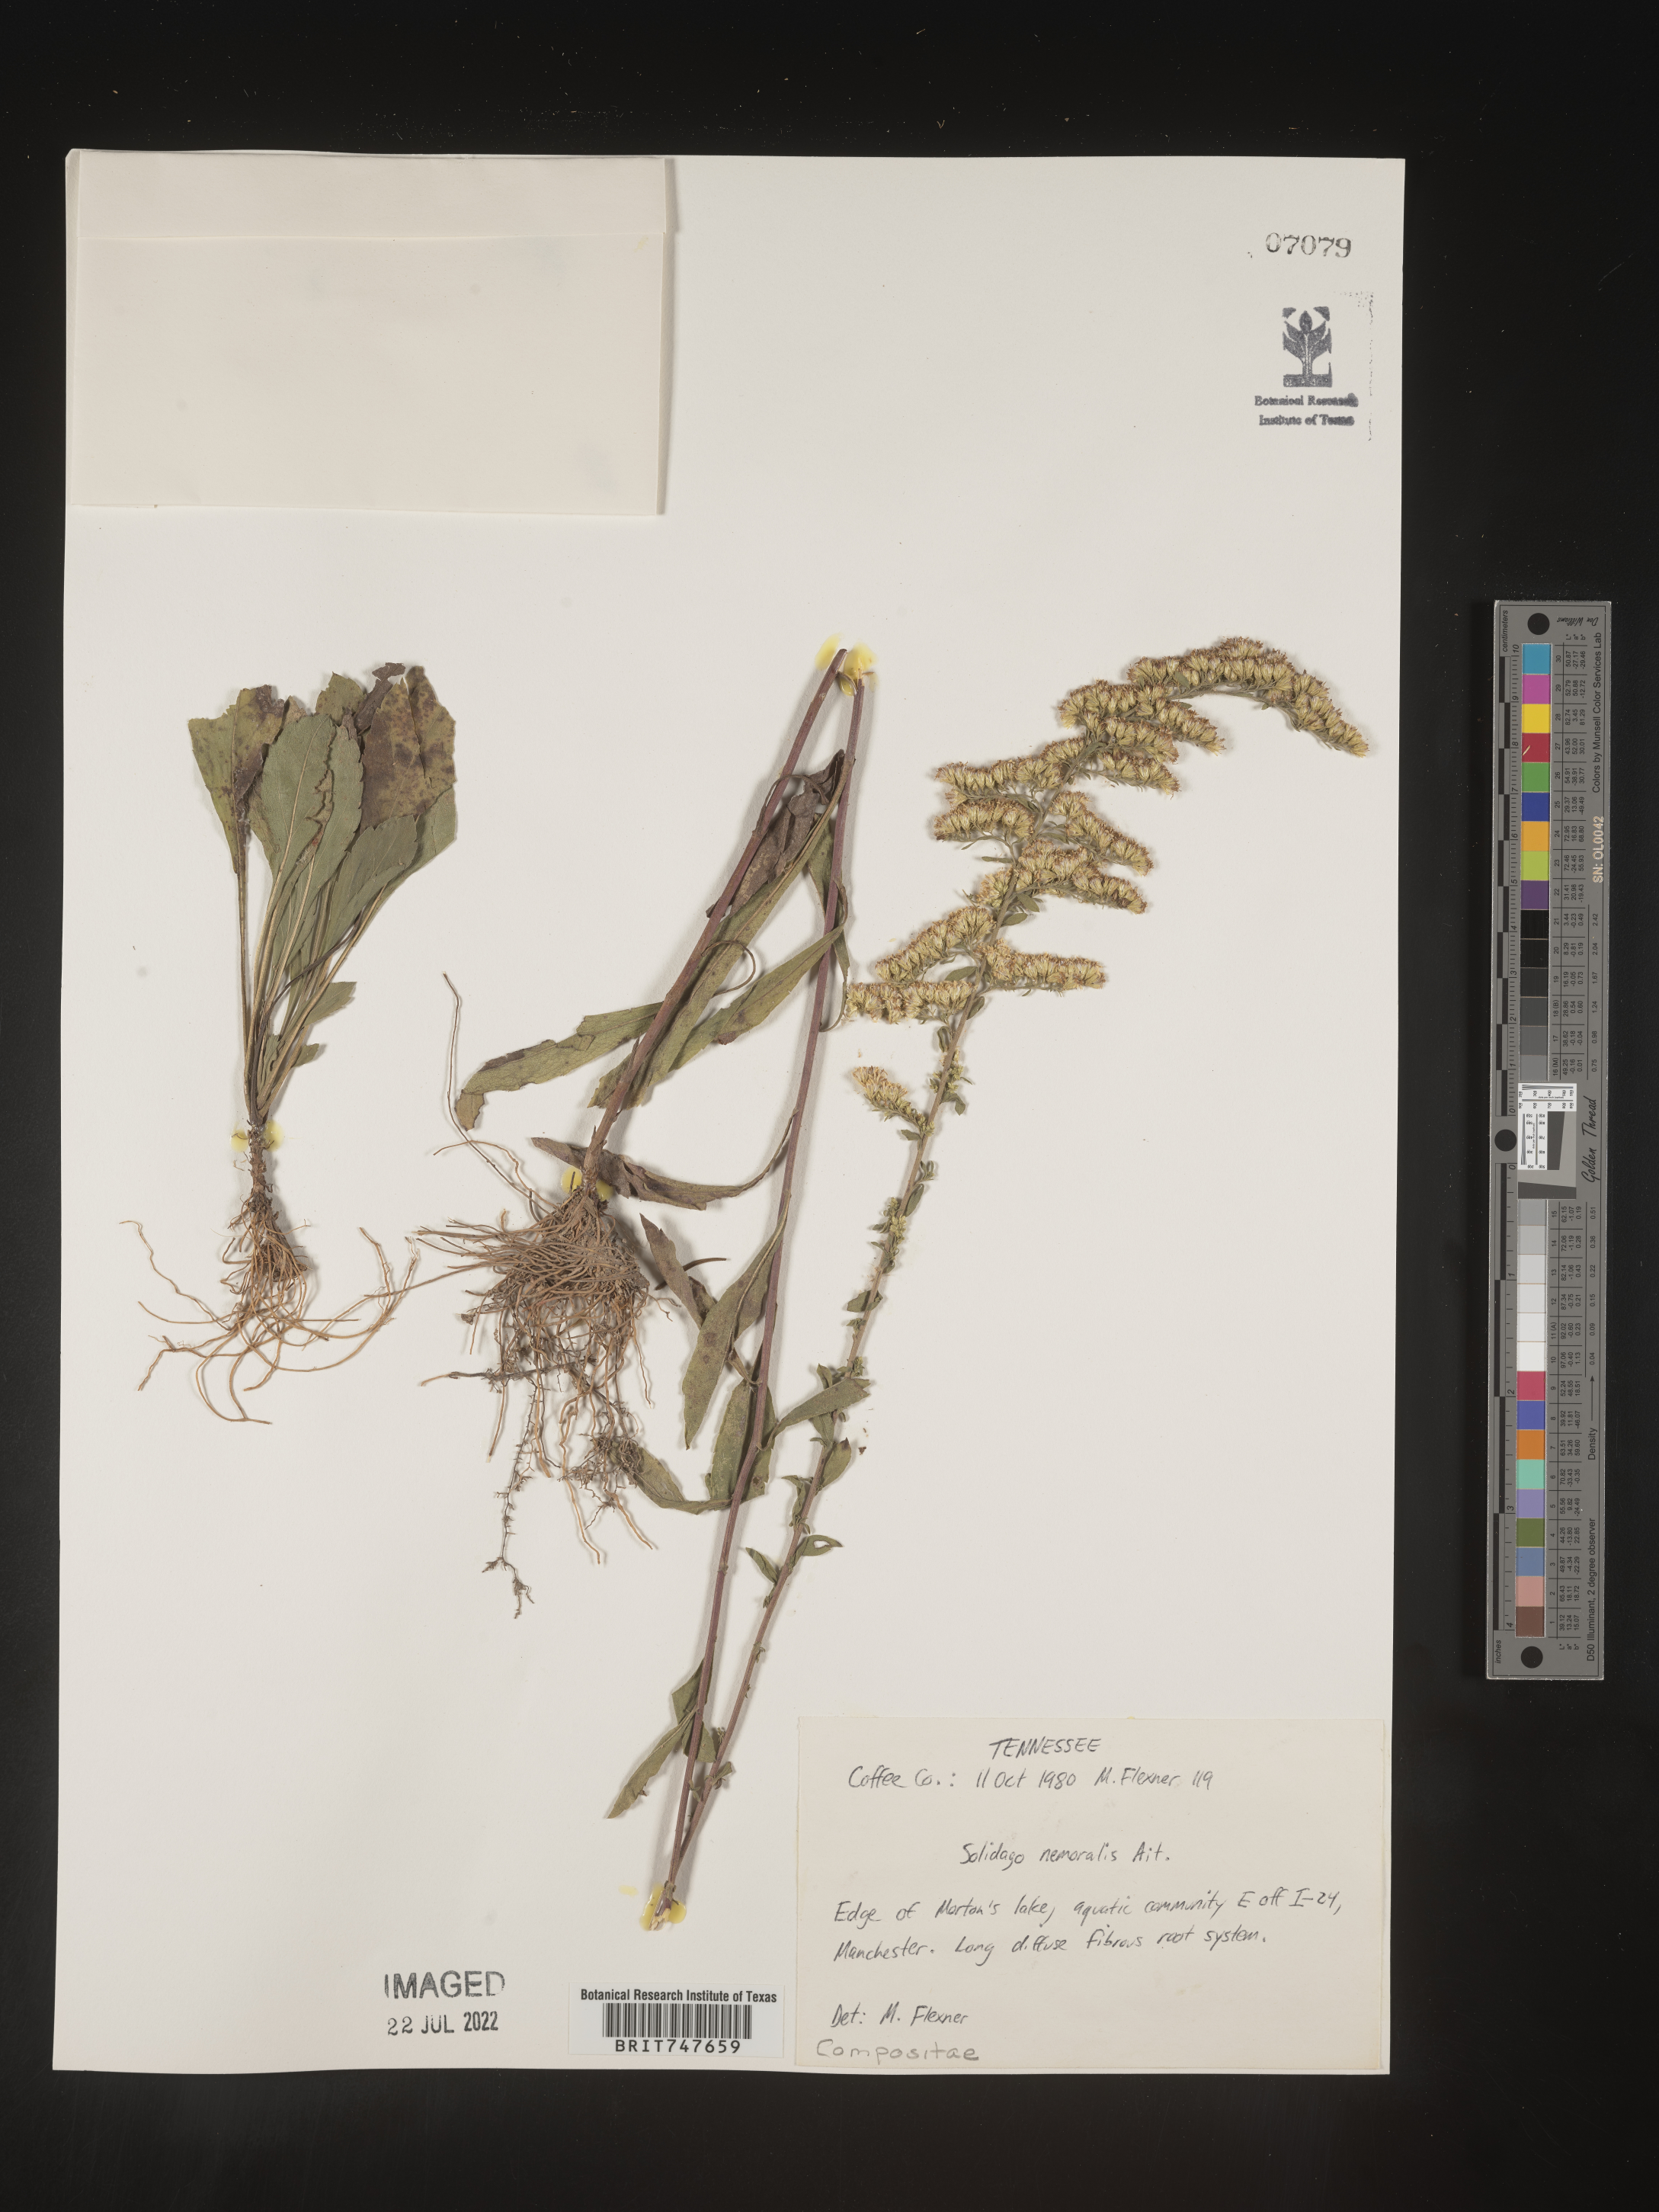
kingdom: Plantae
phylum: Tracheophyta
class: Magnoliopsida
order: Asterales
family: Asteraceae
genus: Solidago
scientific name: Solidago nemoralis
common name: Grey goldenrod
